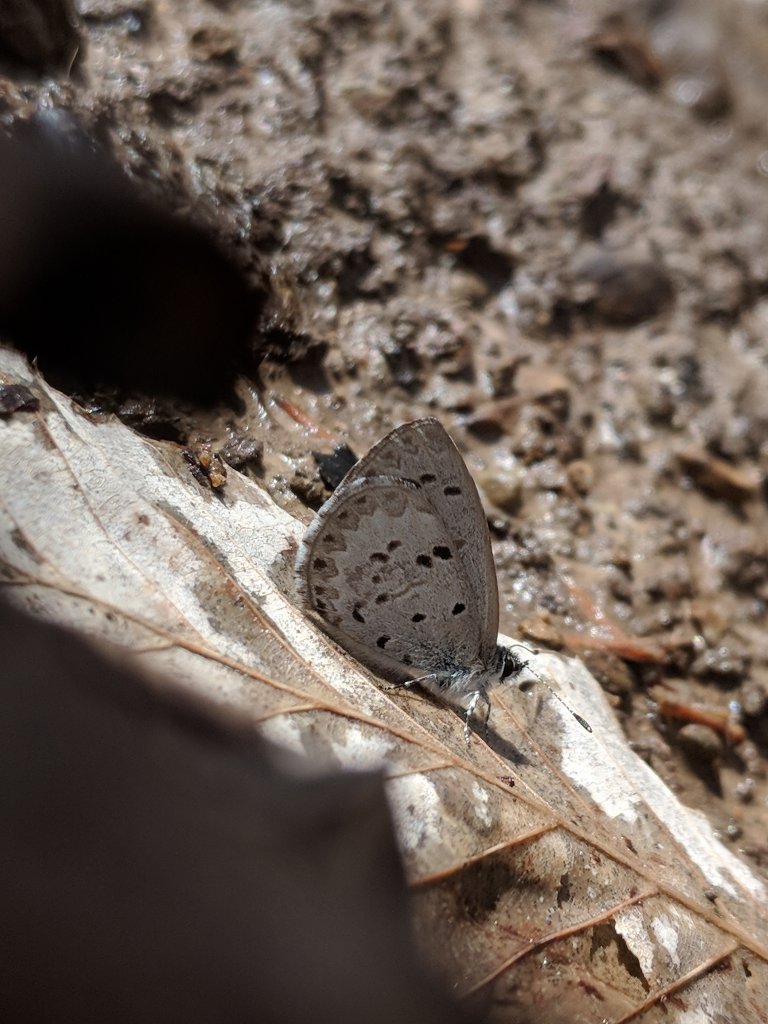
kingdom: Animalia
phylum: Arthropoda
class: Insecta
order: Lepidoptera
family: Lycaenidae
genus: Celastrina
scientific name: Celastrina ladon
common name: Spring Azure
